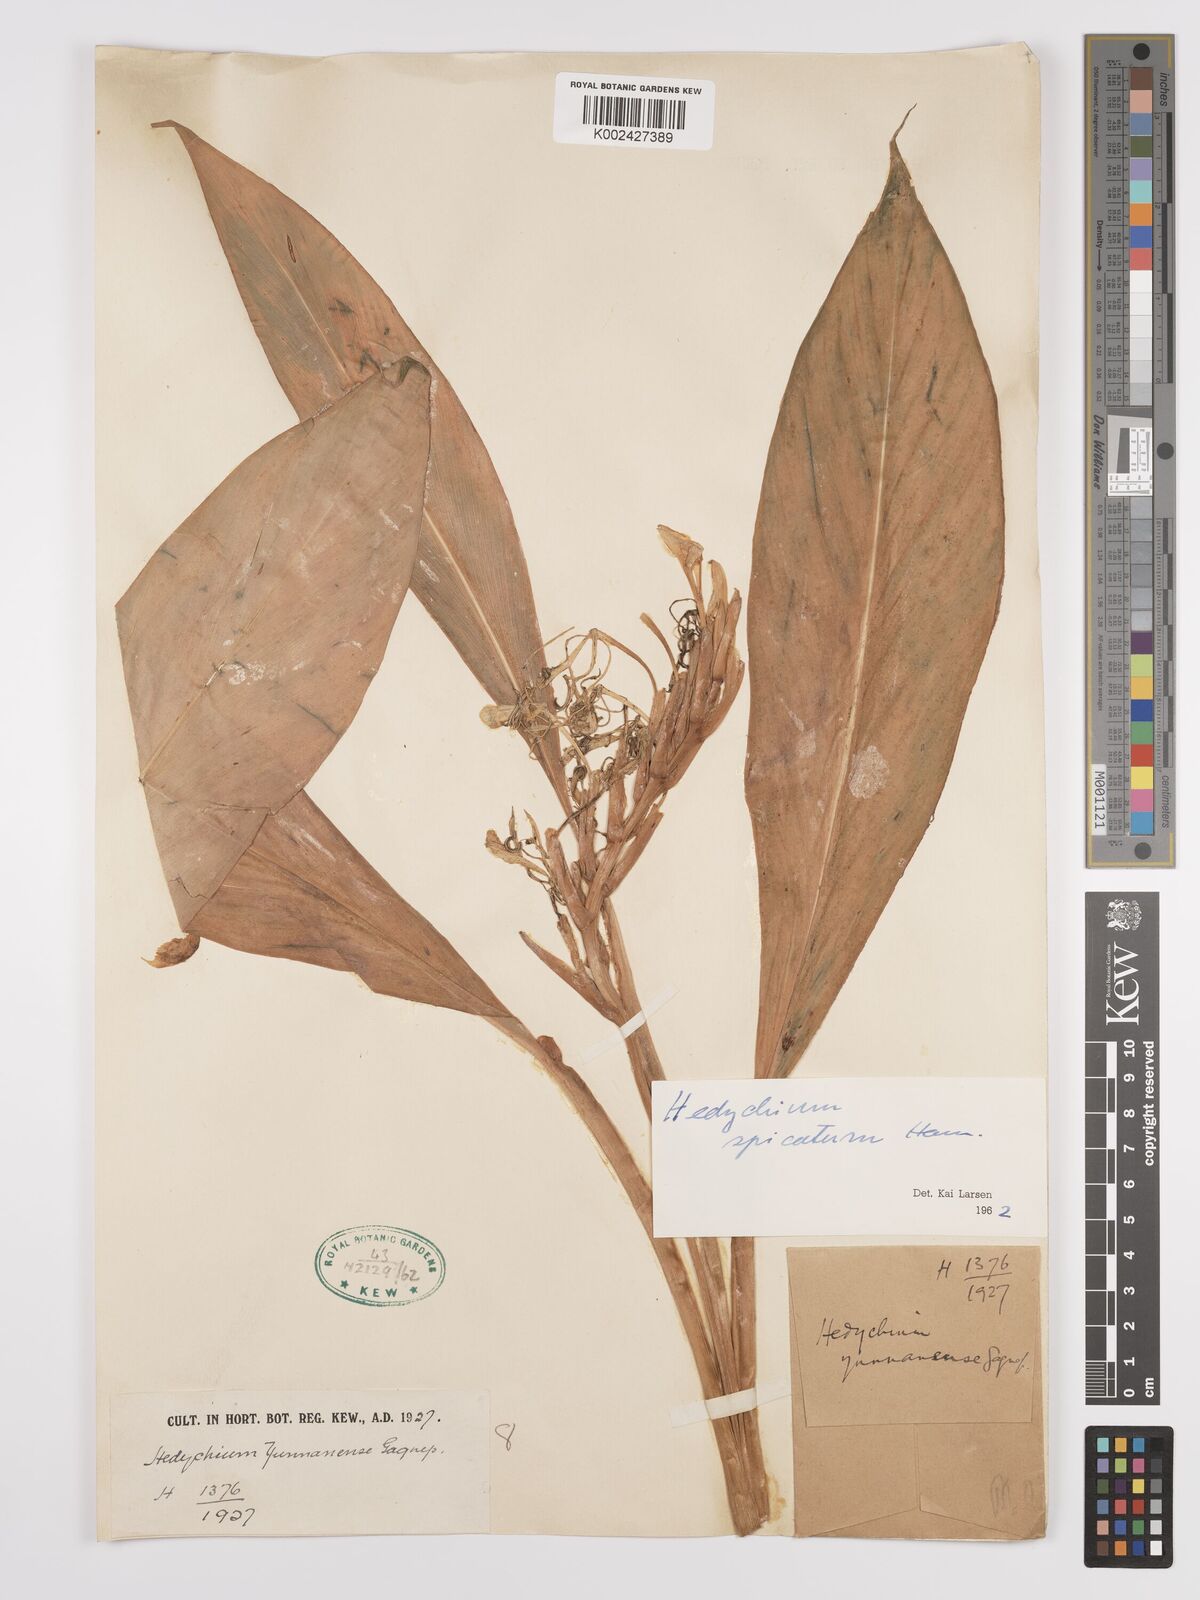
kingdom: Plantae
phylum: Tracheophyta
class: Liliopsida
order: Zingiberales
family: Zingiberaceae
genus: Hedychium
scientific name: Hedychium spicatum
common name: Spiked ginger-lily
